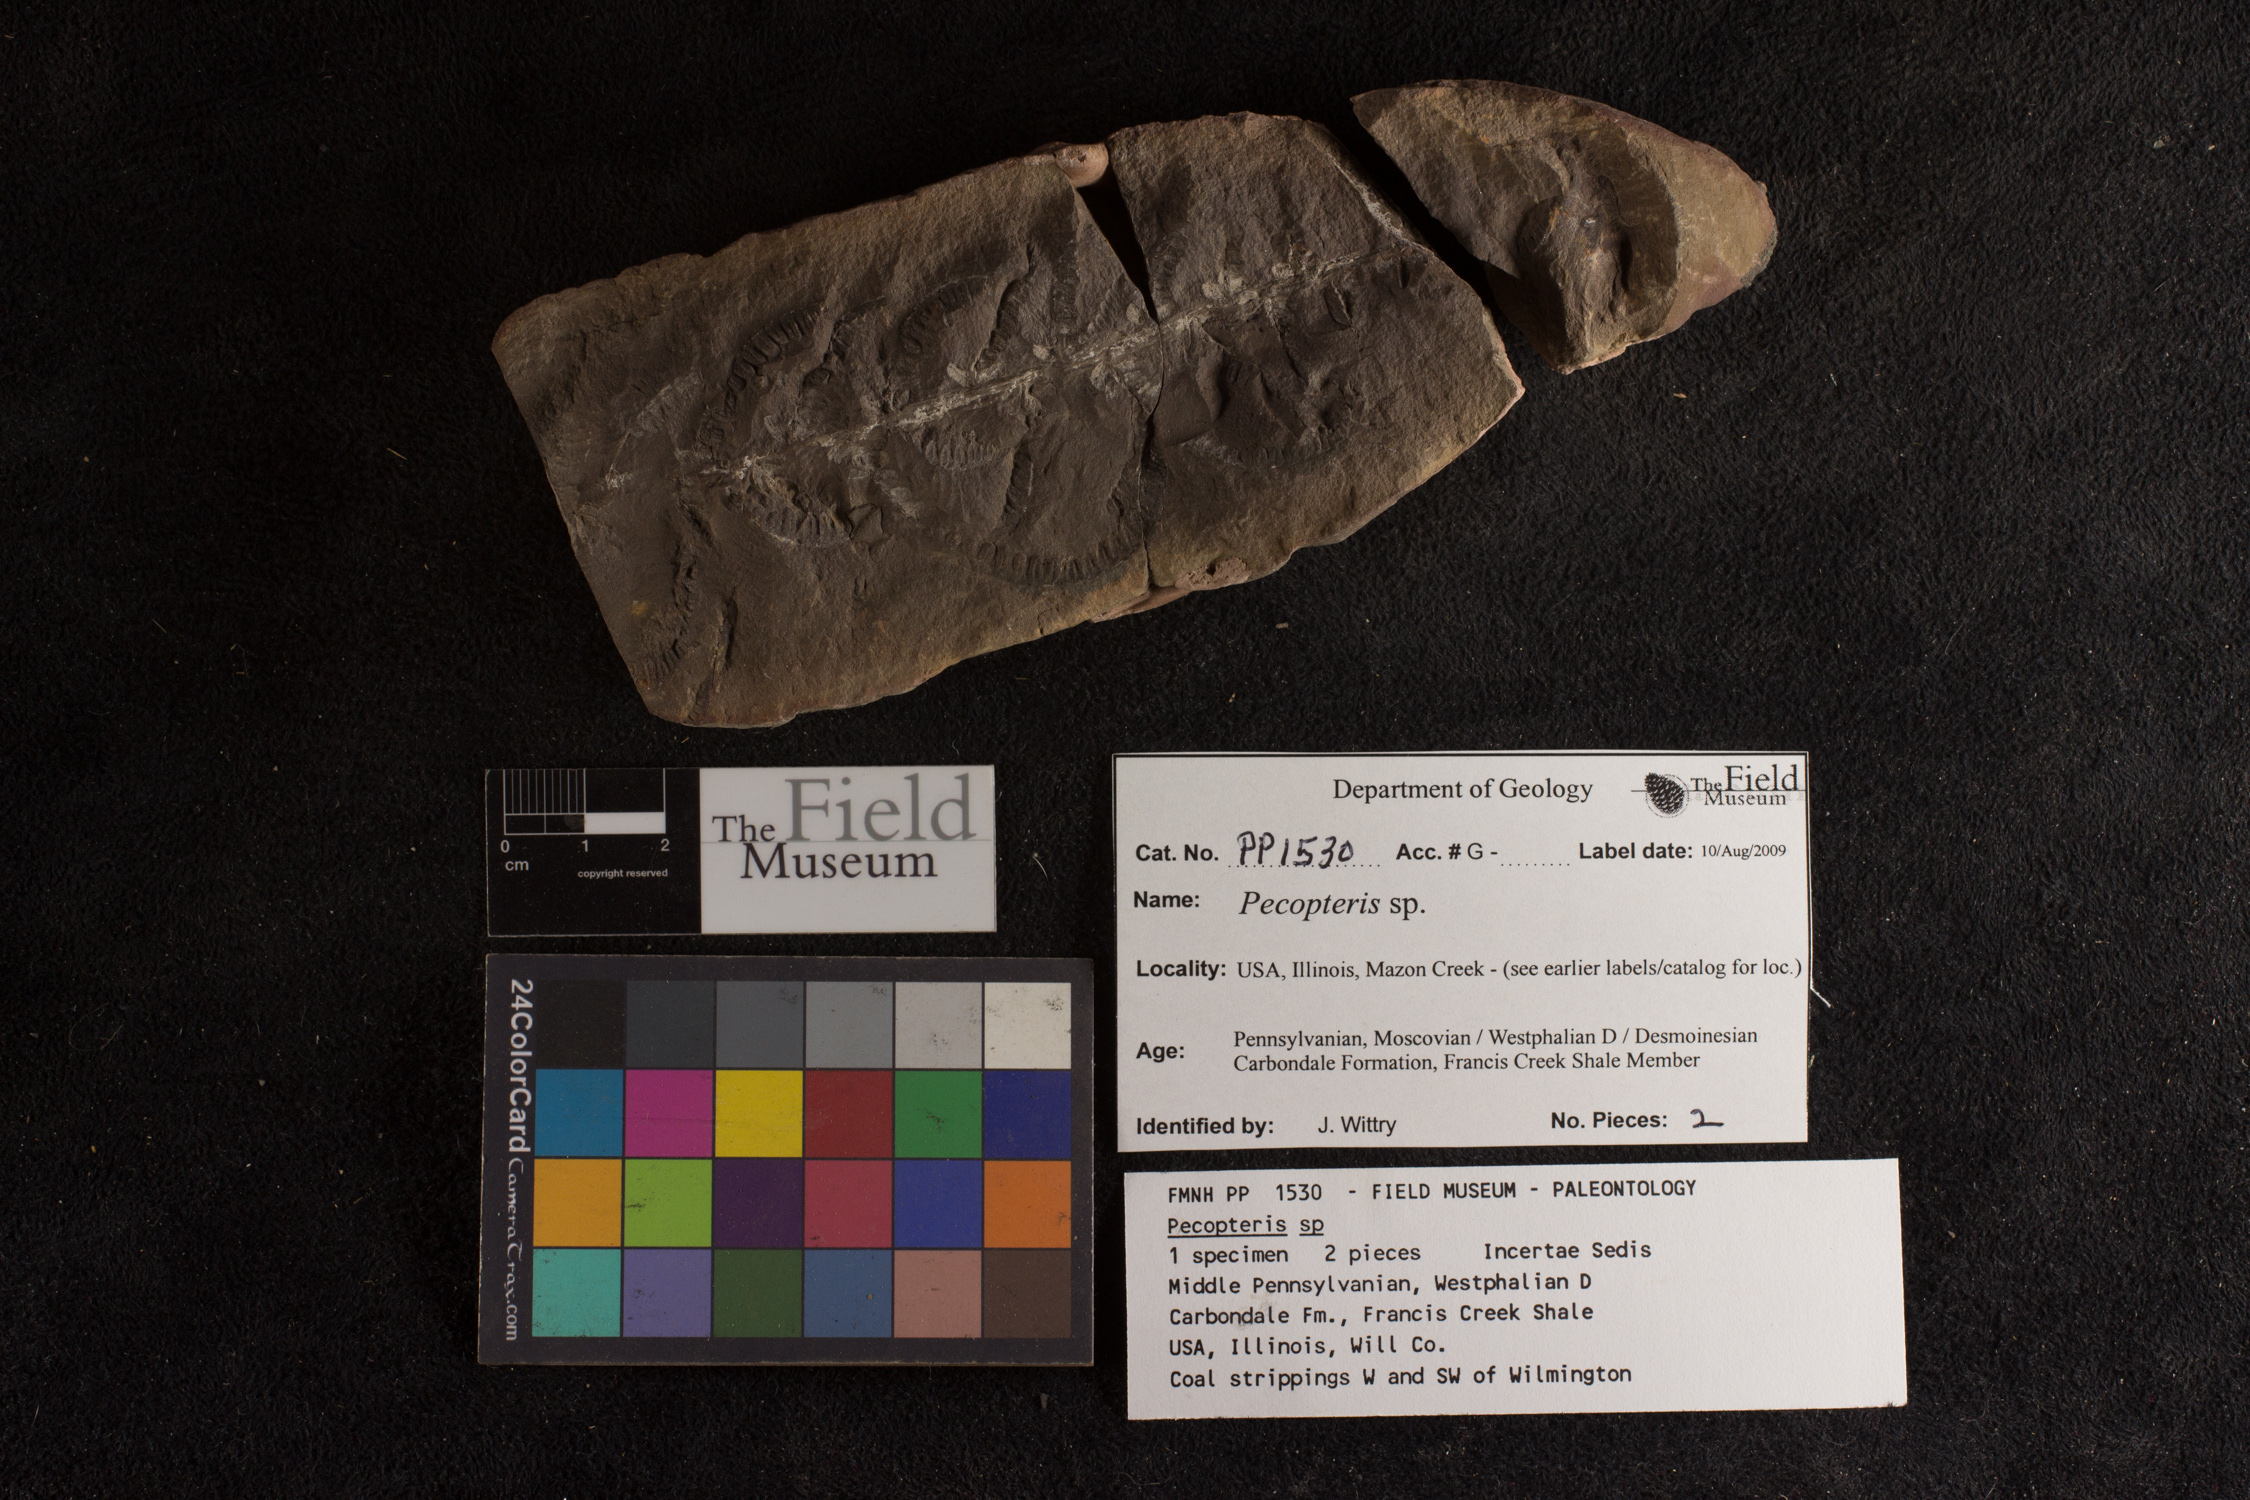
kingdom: Plantae
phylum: Tracheophyta
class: Polypodiopsida
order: Marattiales
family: Asterothecaceae
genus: Pecopteris
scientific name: Pecopteris
